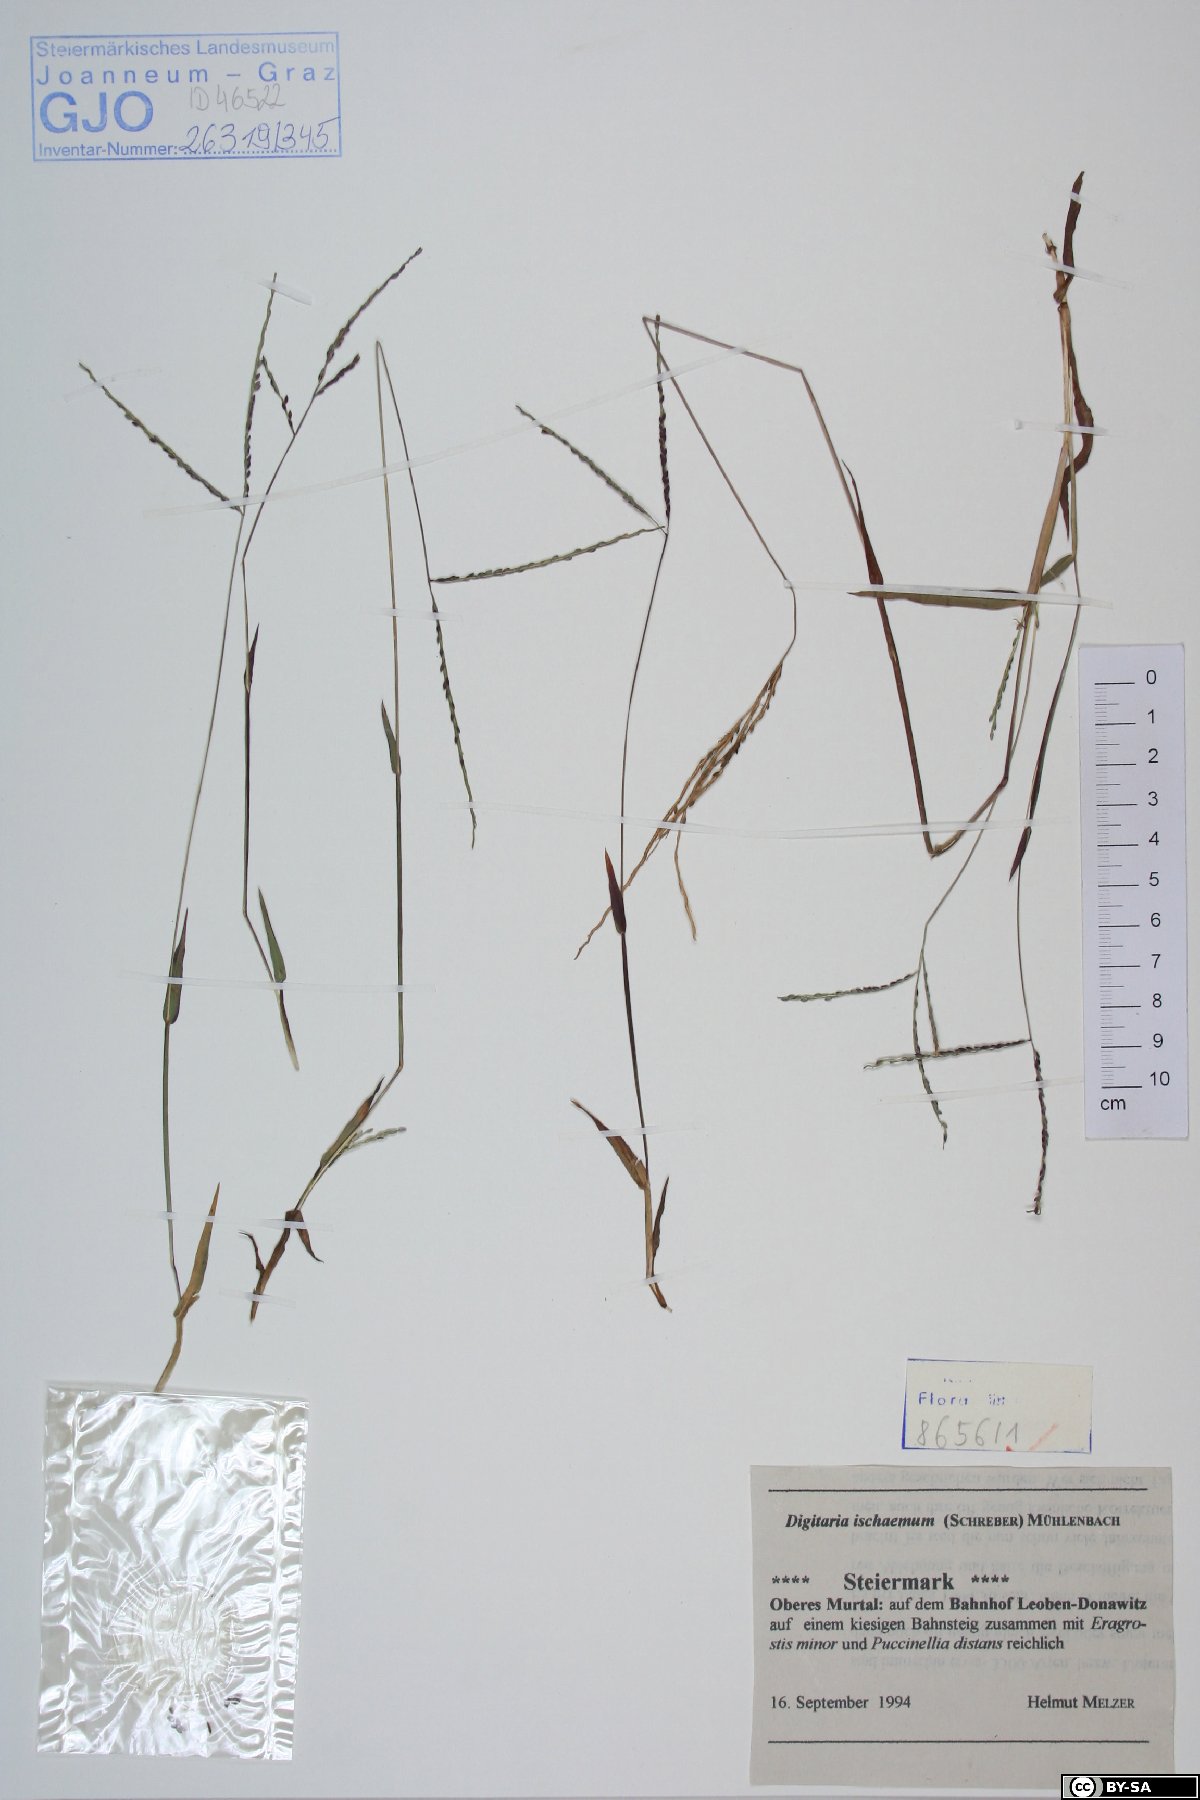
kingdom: Plantae
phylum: Tracheophyta
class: Liliopsida
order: Poales
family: Poaceae
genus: Digitaria
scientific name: Digitaria ischaemum
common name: Smooth crabgrass
